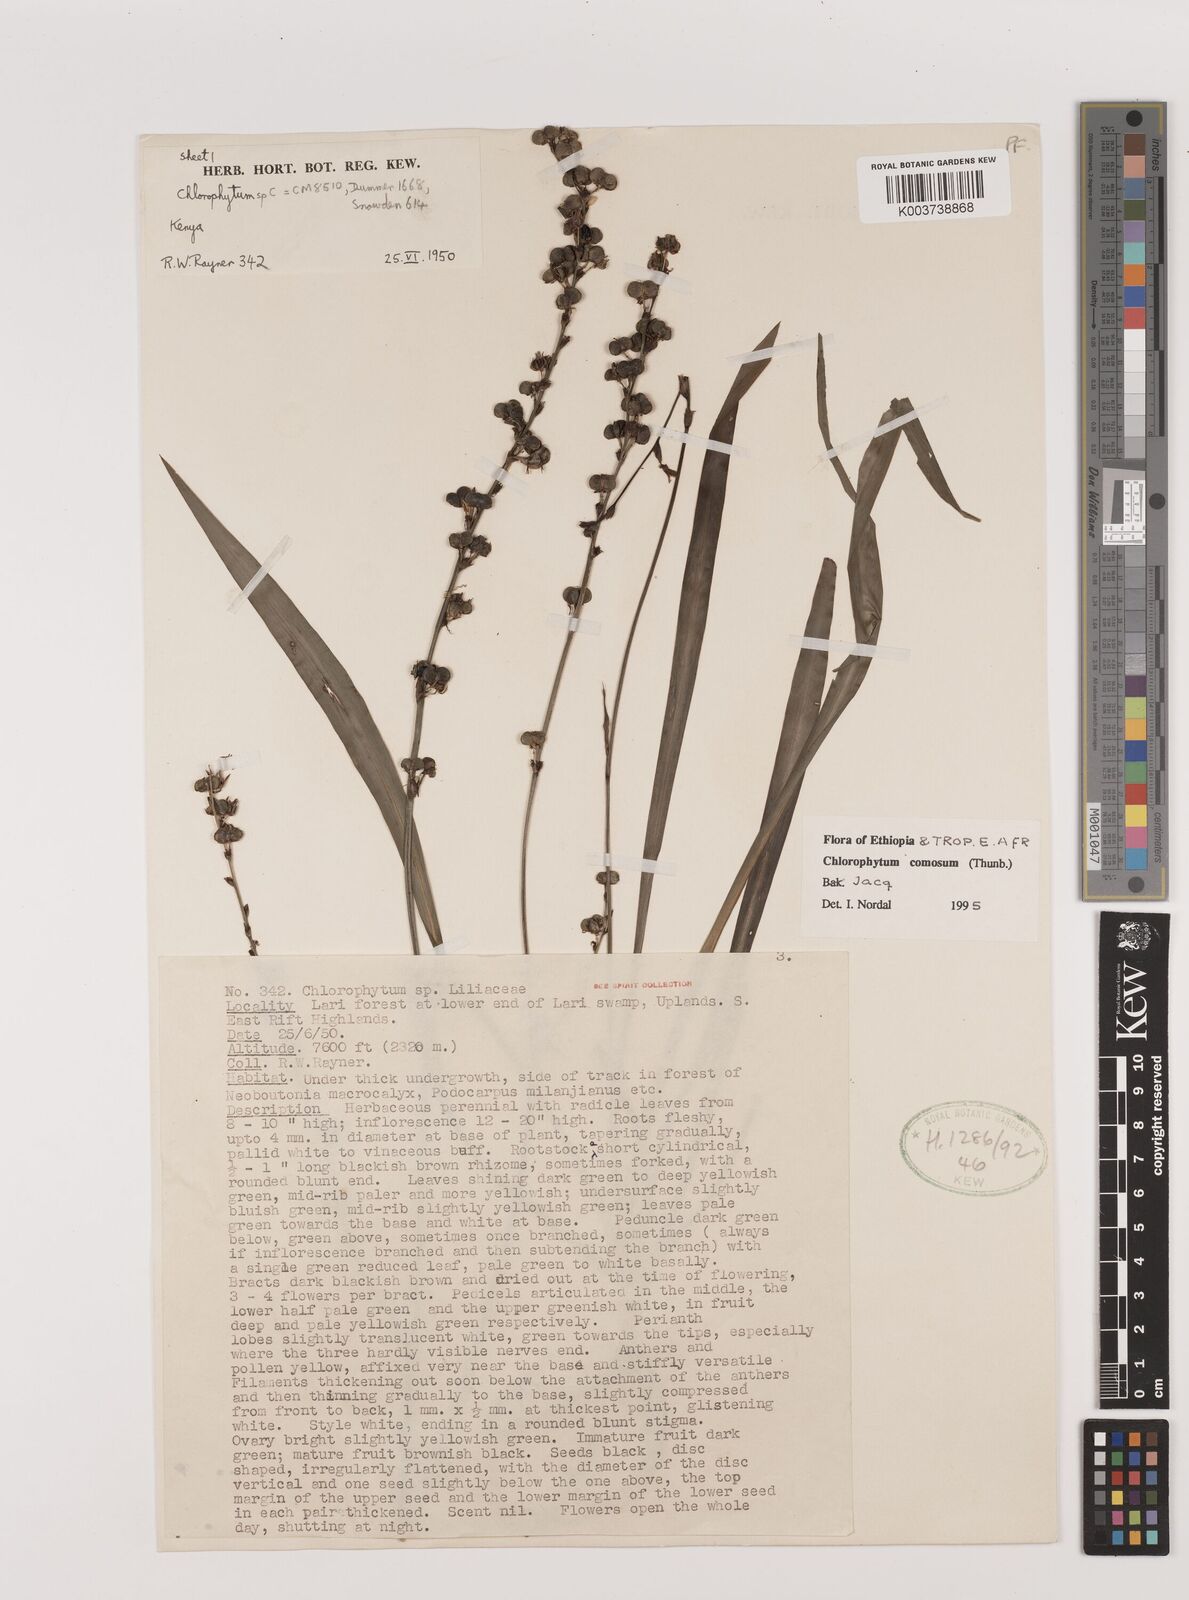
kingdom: Plantae
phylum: Tracheophyta
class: Liliopsida
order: Asparagales
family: Asparagaceae
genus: Chlorophytum
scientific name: Chlorophytum comosum
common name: Spider plant
